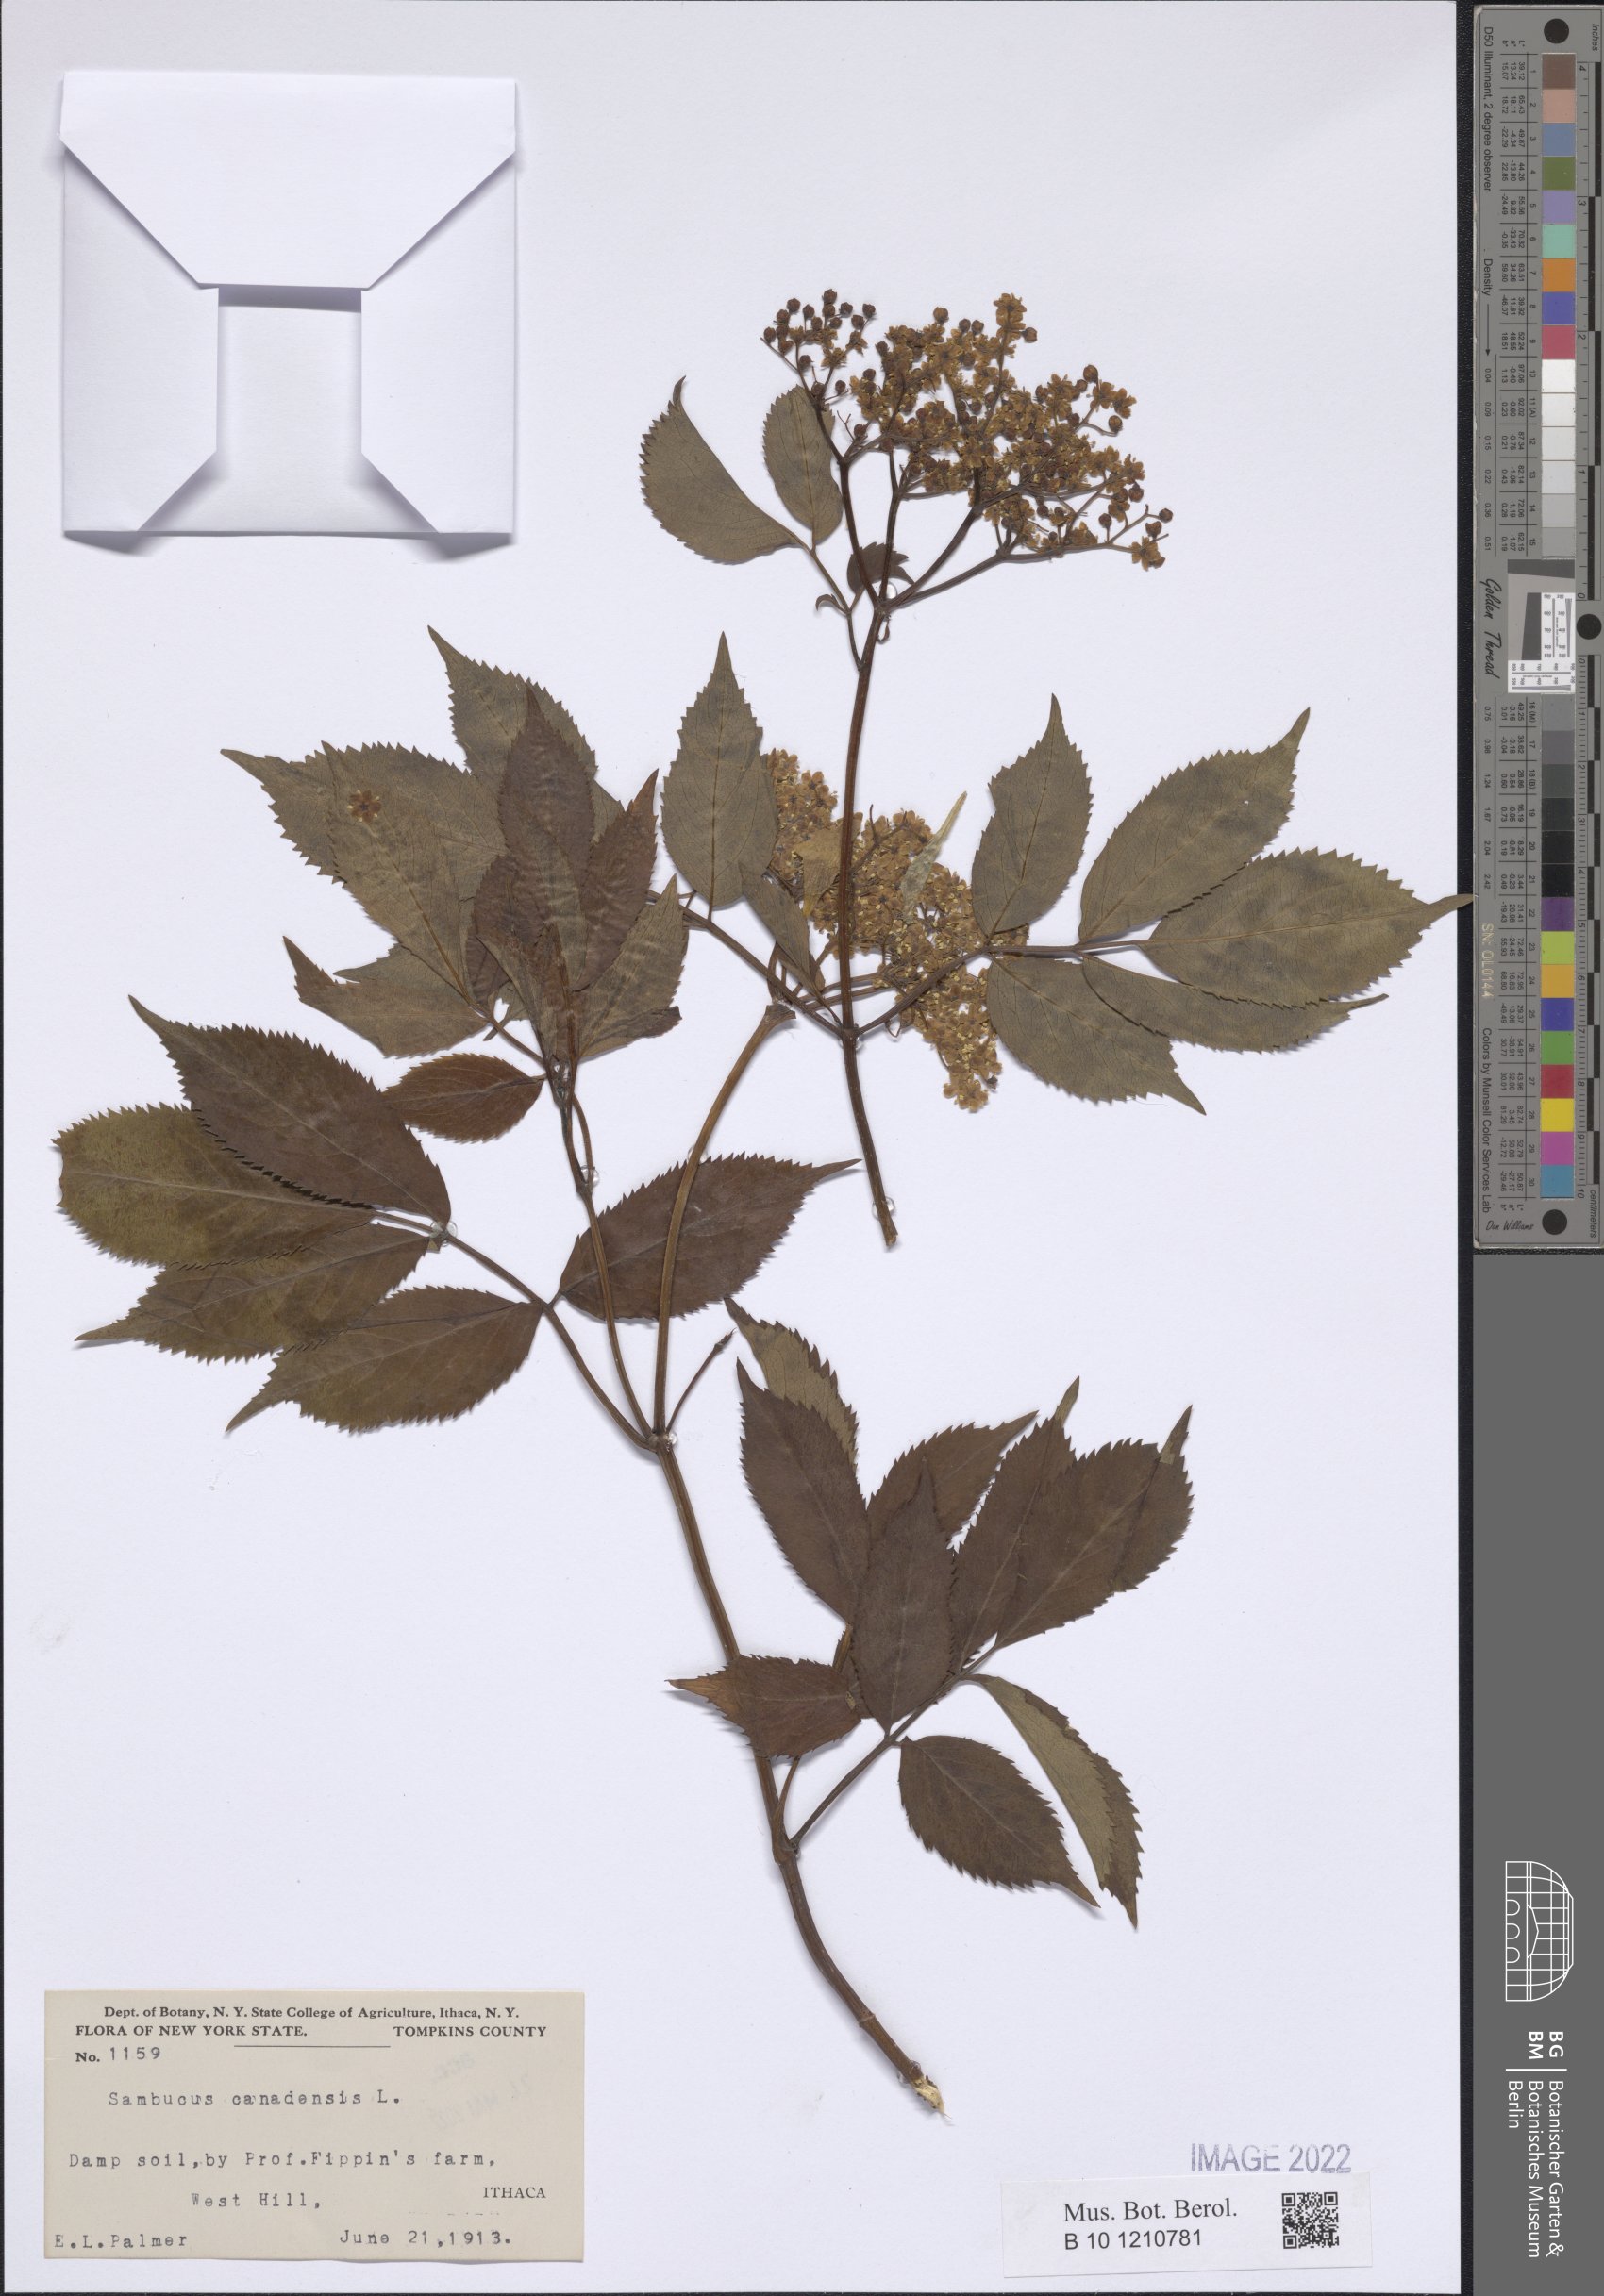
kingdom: Plantae
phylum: Tracheophyta
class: Magnoliopsida
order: Dipsacales
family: Viburnaceae
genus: Sambucus
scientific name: Sambucus canadensis
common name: American elder
